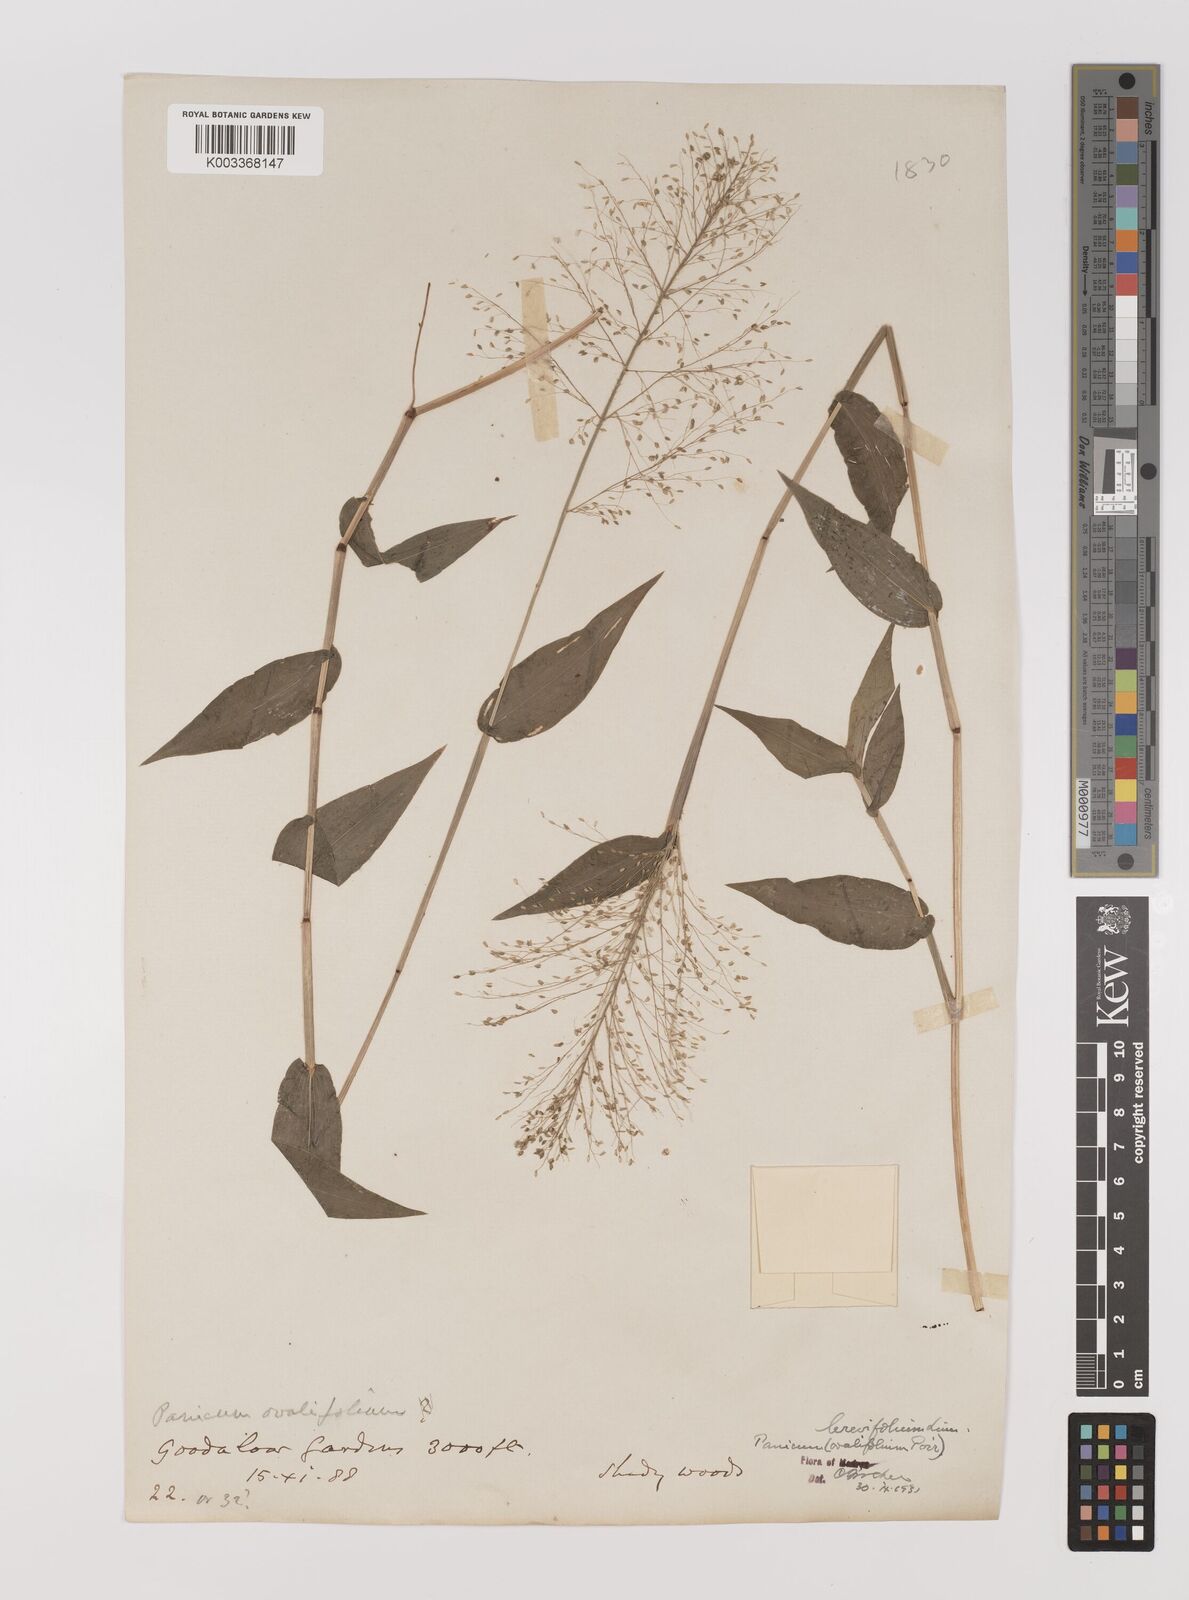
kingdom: Plantae
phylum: Tracheophyta
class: Liliopsida
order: Poales
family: Poaceae
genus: Panicum
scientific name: Panicum brevifolium
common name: Shortleaf panic grass
